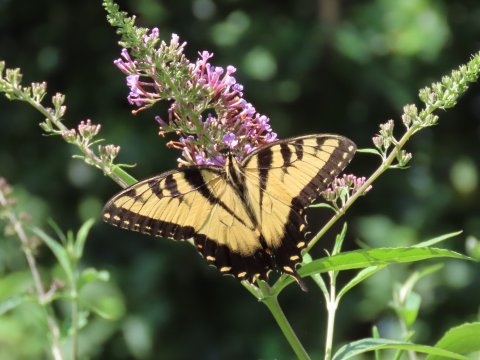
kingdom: Animalia
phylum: Arthropoda
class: Insecta
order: Lepidoptera
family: Papilionidae
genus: Pterourus
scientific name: Pterourus glaucus
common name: Eastern Tiger Swallowtail
